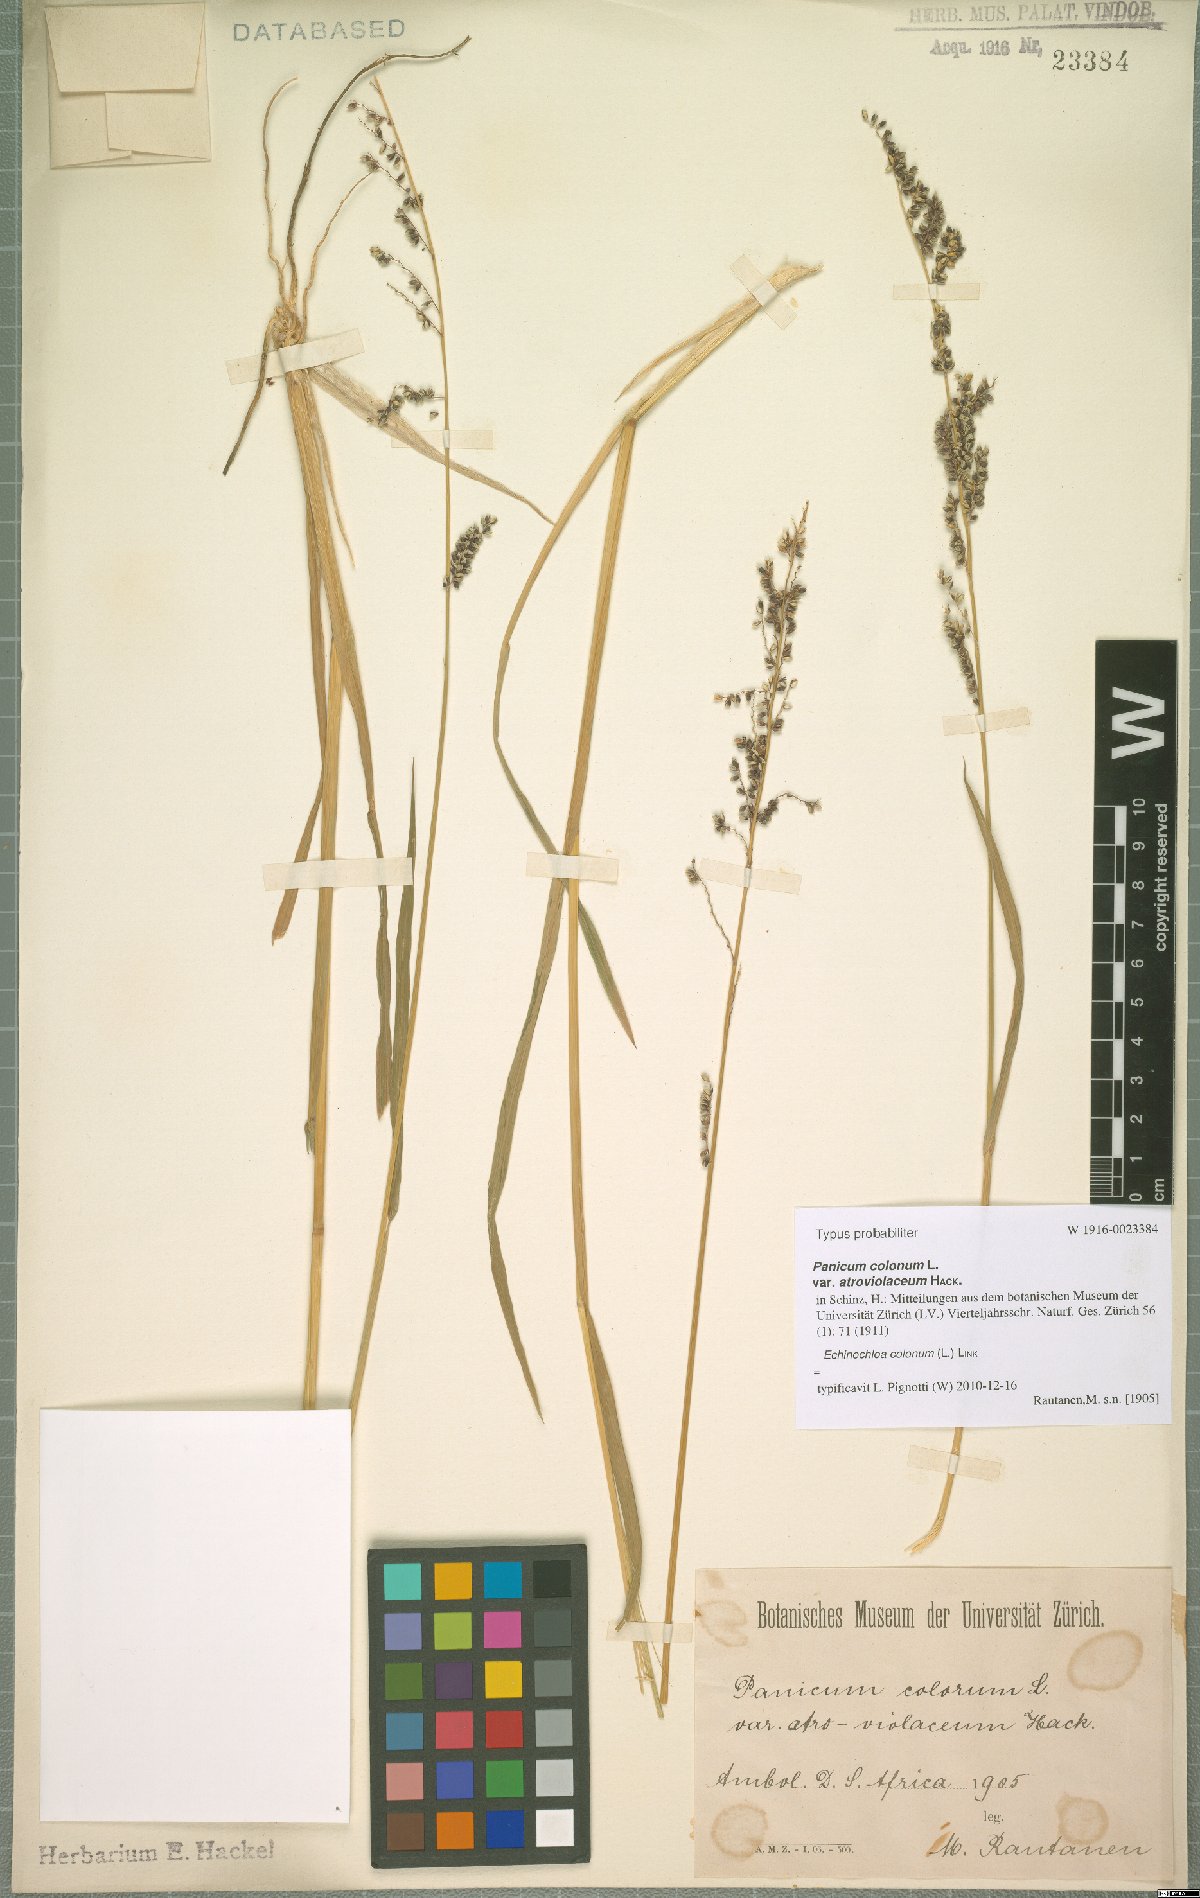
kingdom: Plantae
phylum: Tracheophyta
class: Liliopsida
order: Poales
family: Poaceae
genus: Echinochloa
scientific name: Echinochloa colonum
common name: Jungle rice
